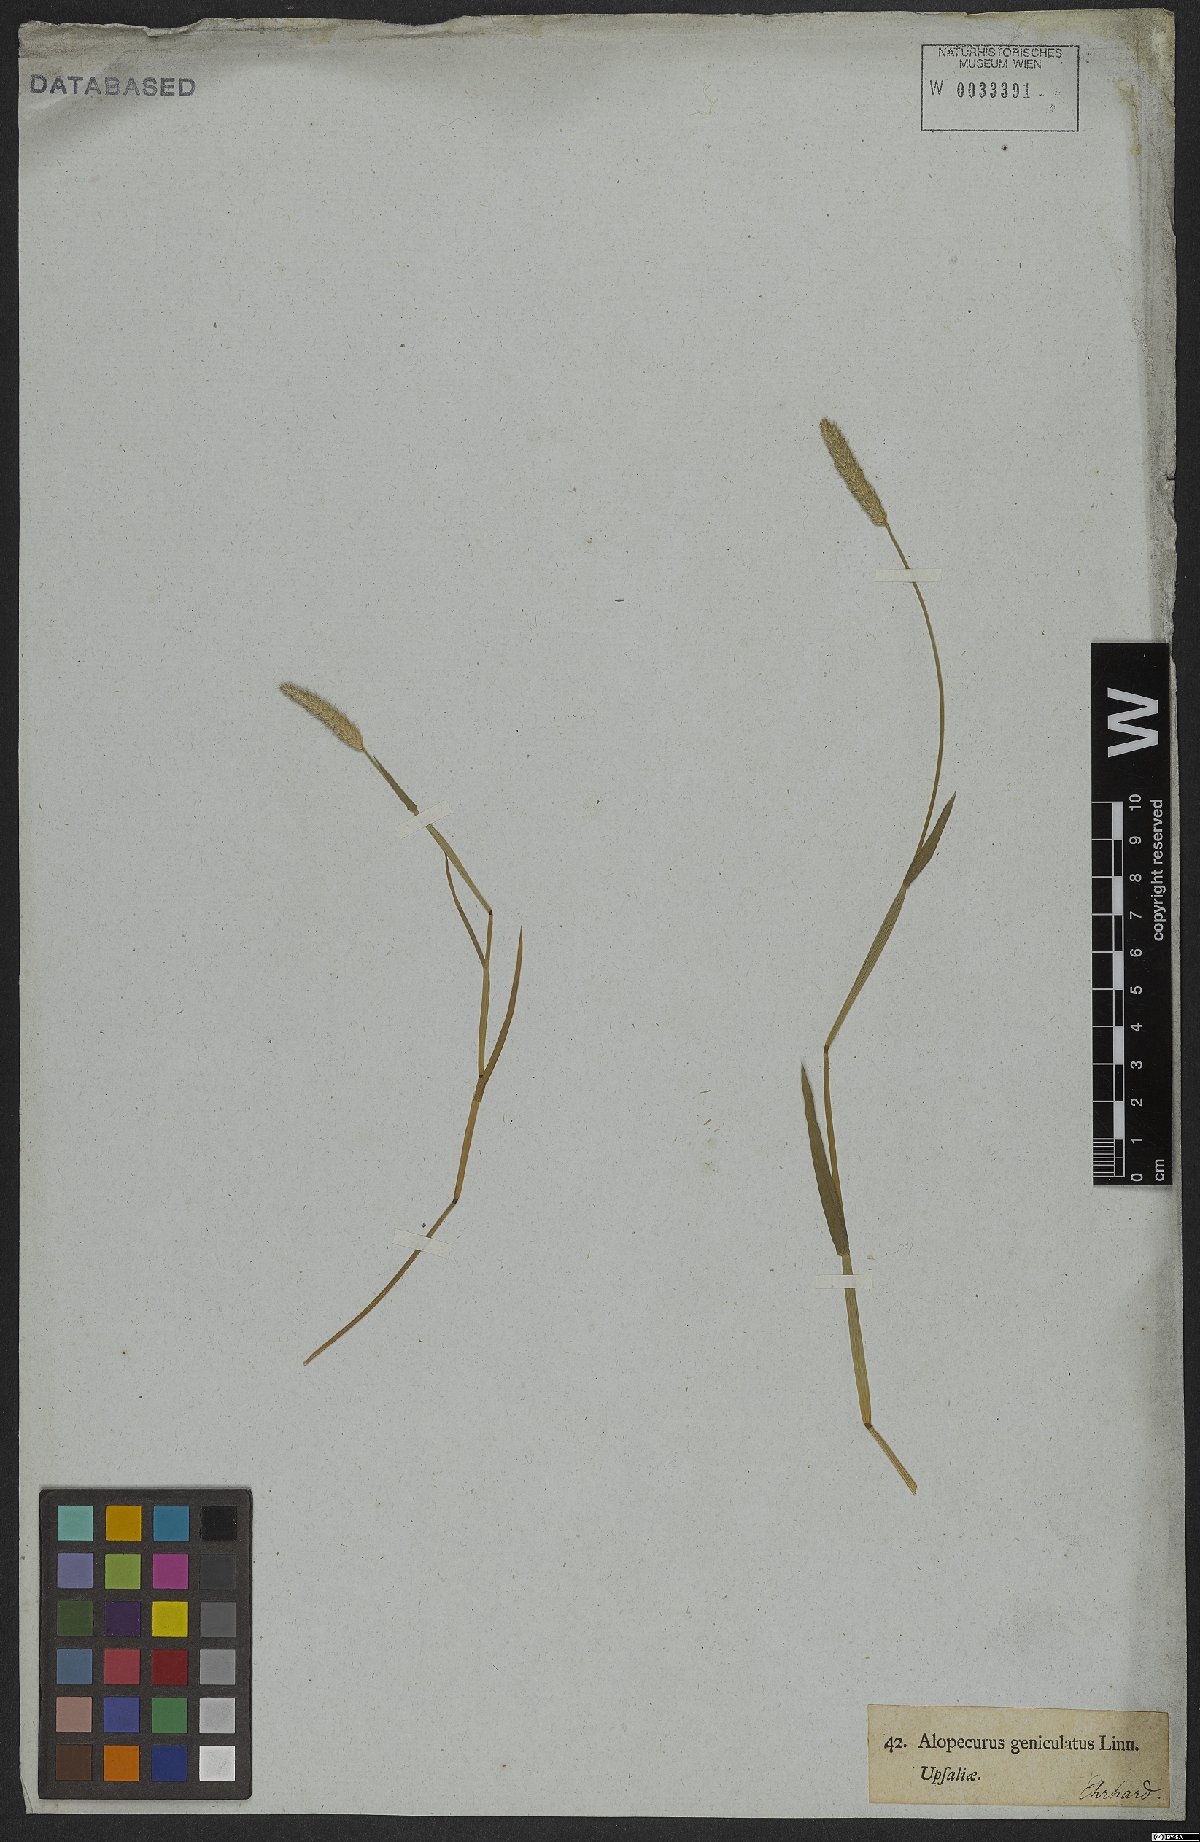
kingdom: Plantae
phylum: Tracheophyta
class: Liliopsida
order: Poales
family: Poaceae
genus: Alopecurus
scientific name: Alopecurus geniculatus
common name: Water foxtail
